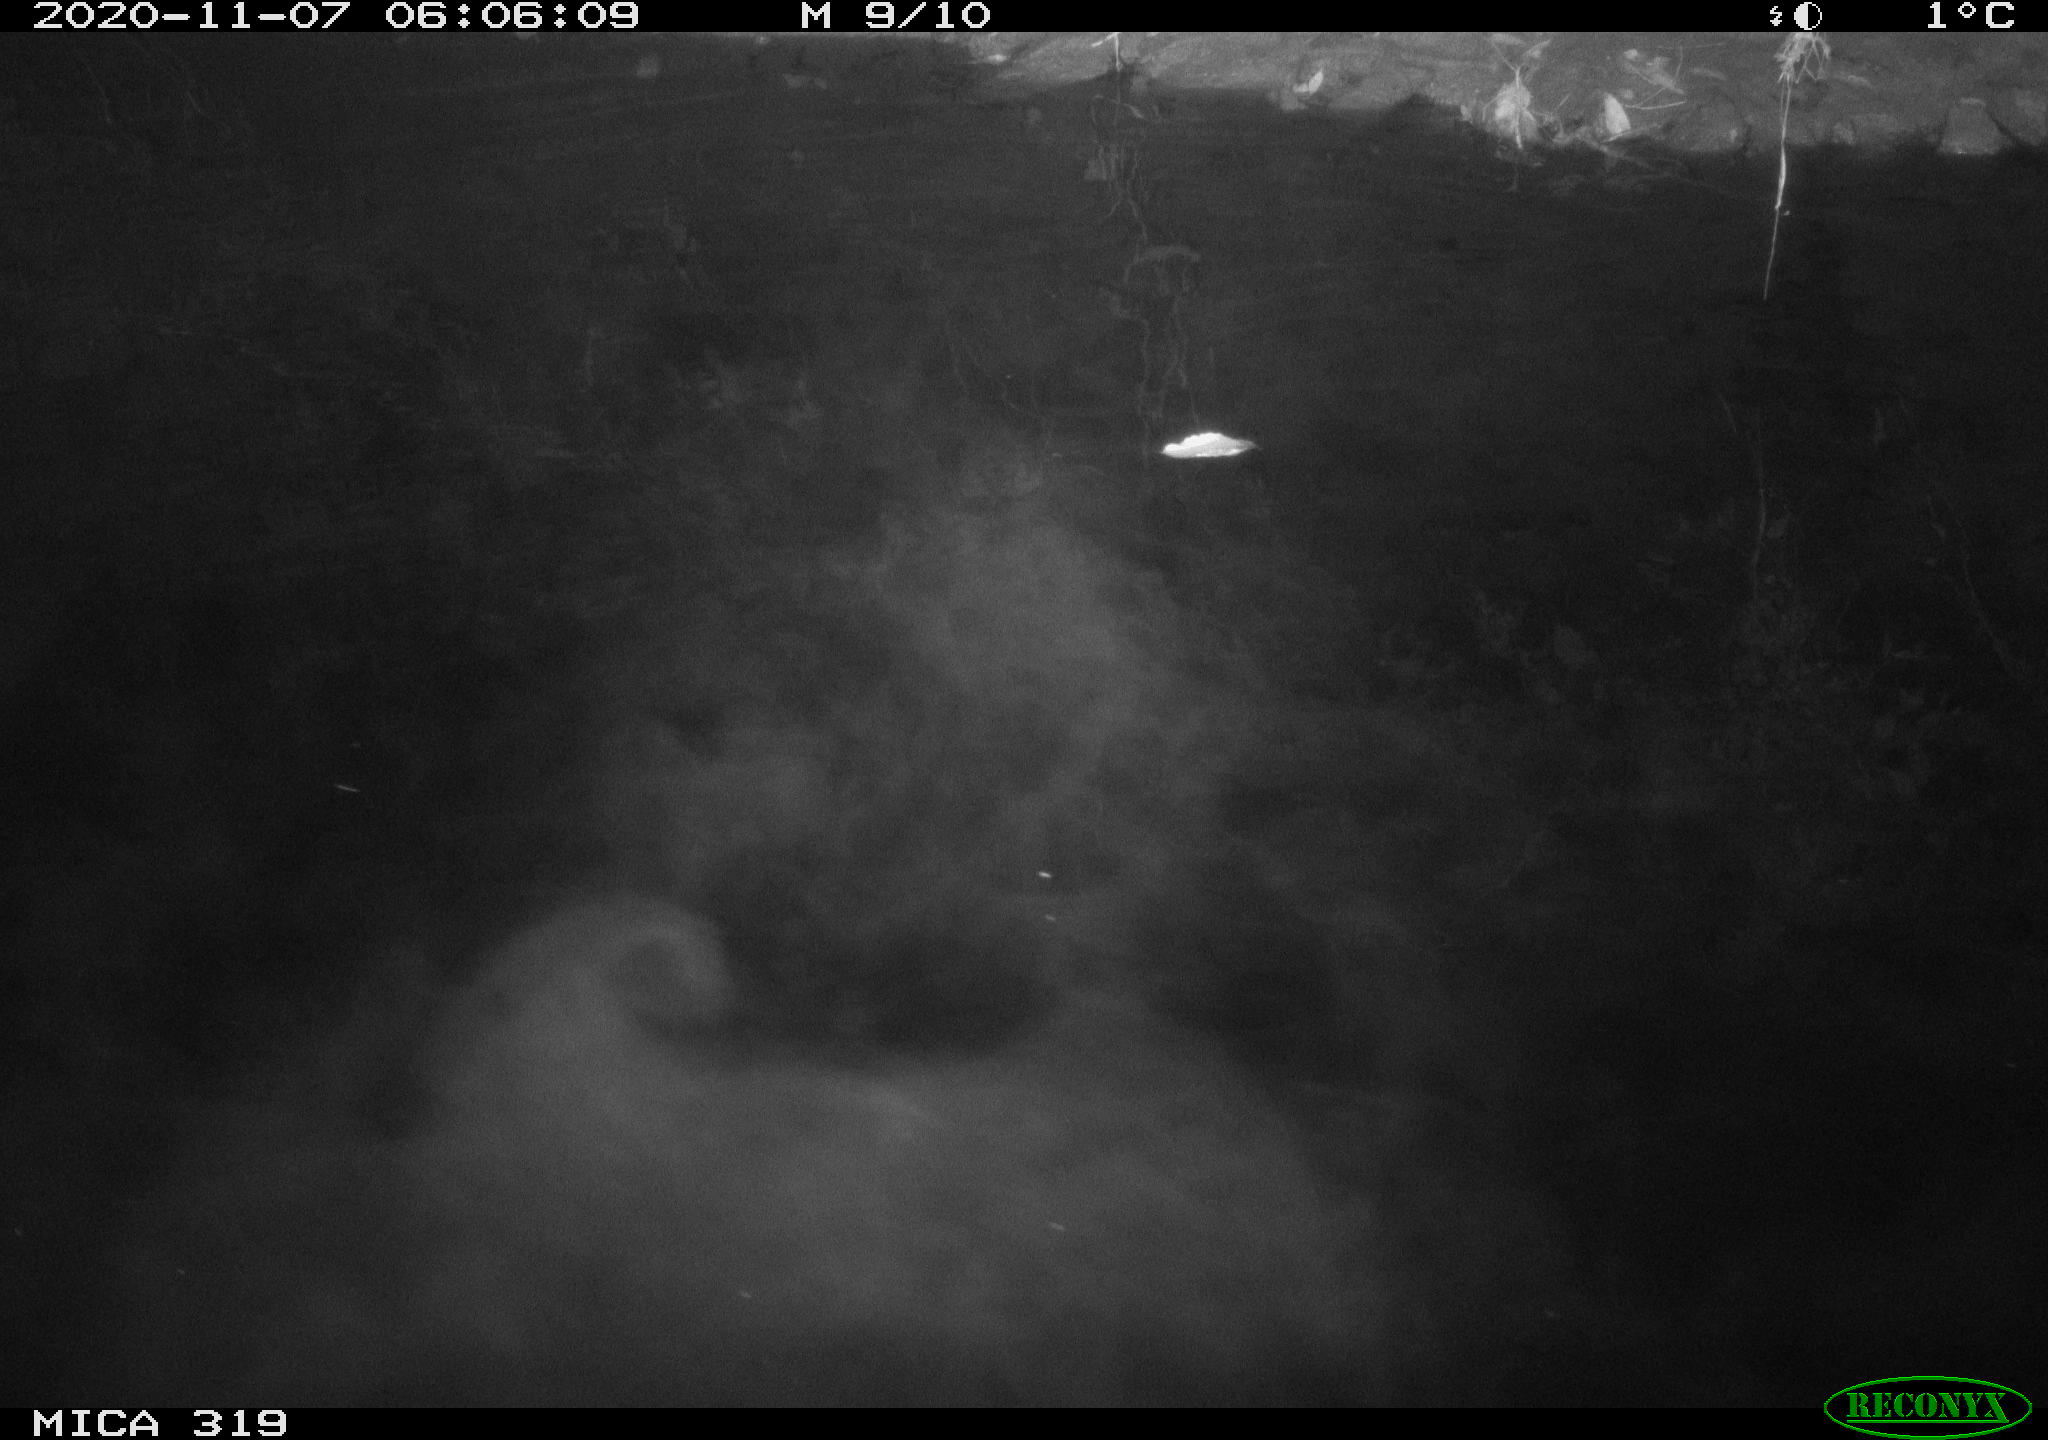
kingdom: Animalia
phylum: Chordata
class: Aves
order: Anseriformes
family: Anatidae
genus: Anas
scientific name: Anas platyrhynchos
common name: Mallard
